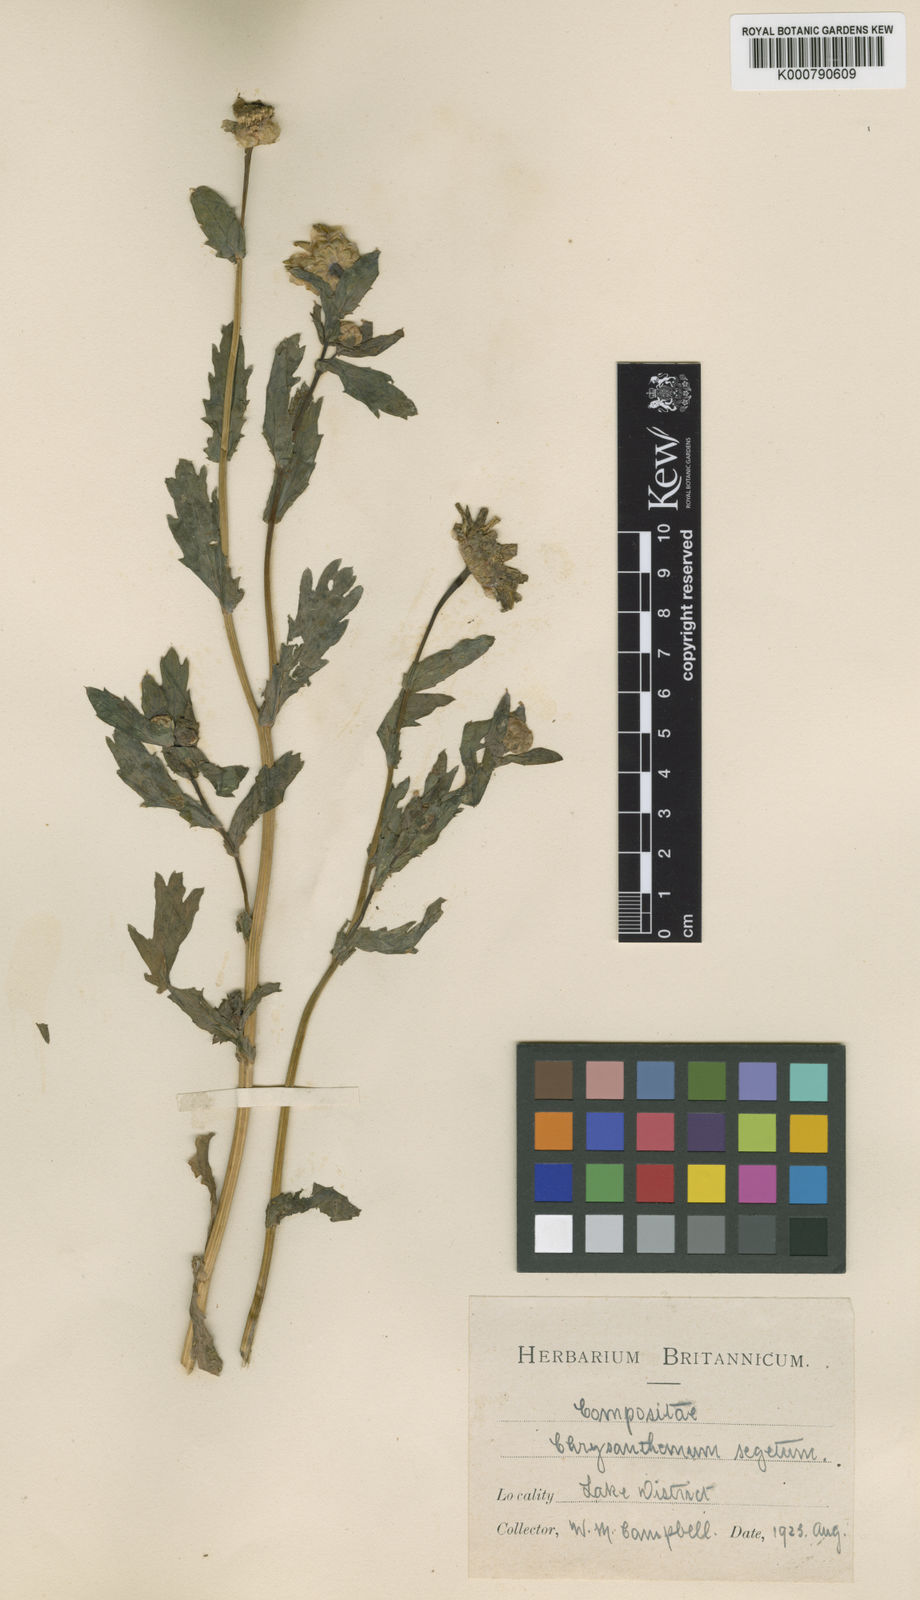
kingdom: Plantae
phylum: Tracheophyta
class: Magnoliopsida
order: Asterales
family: Asteraceae
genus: Glebionis
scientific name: Glebionis
